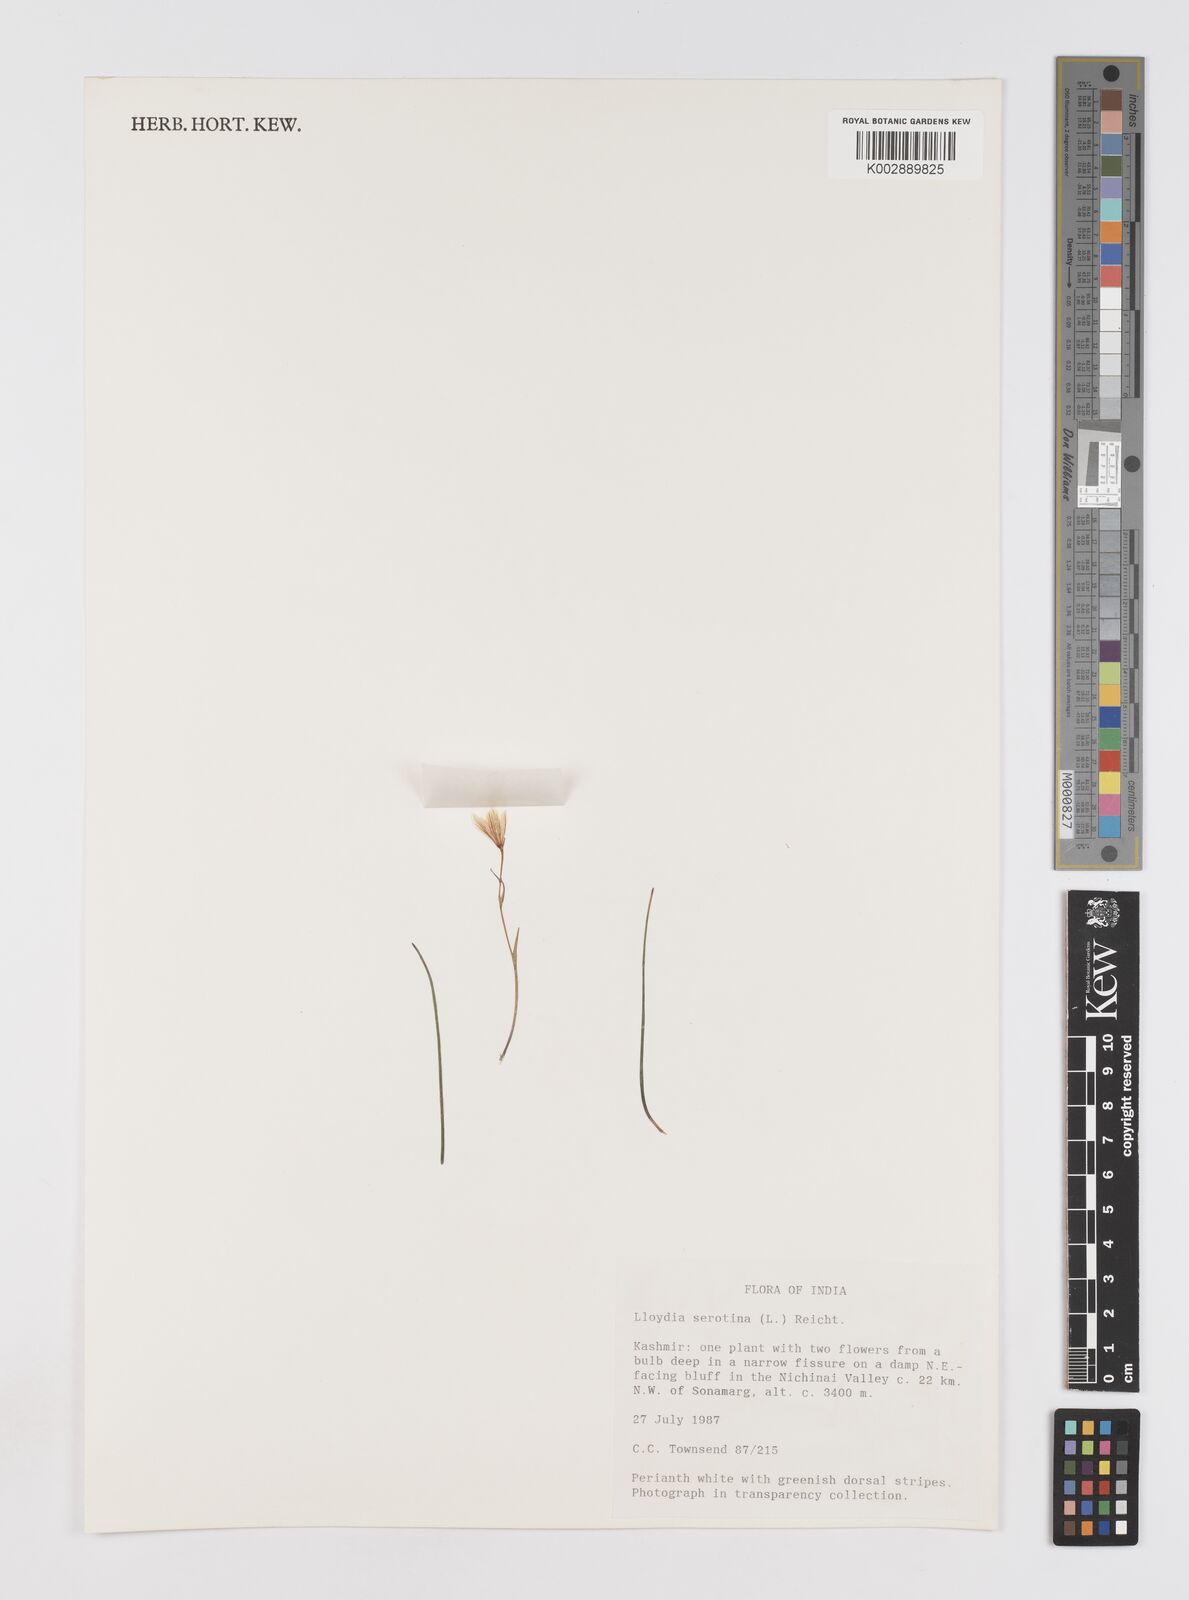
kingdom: Plantae
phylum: Tracheophyta
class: Liliopsida
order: Liliales
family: Liliaceae
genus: Gagea
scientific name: Gagea serotina
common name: Snowdon lily
